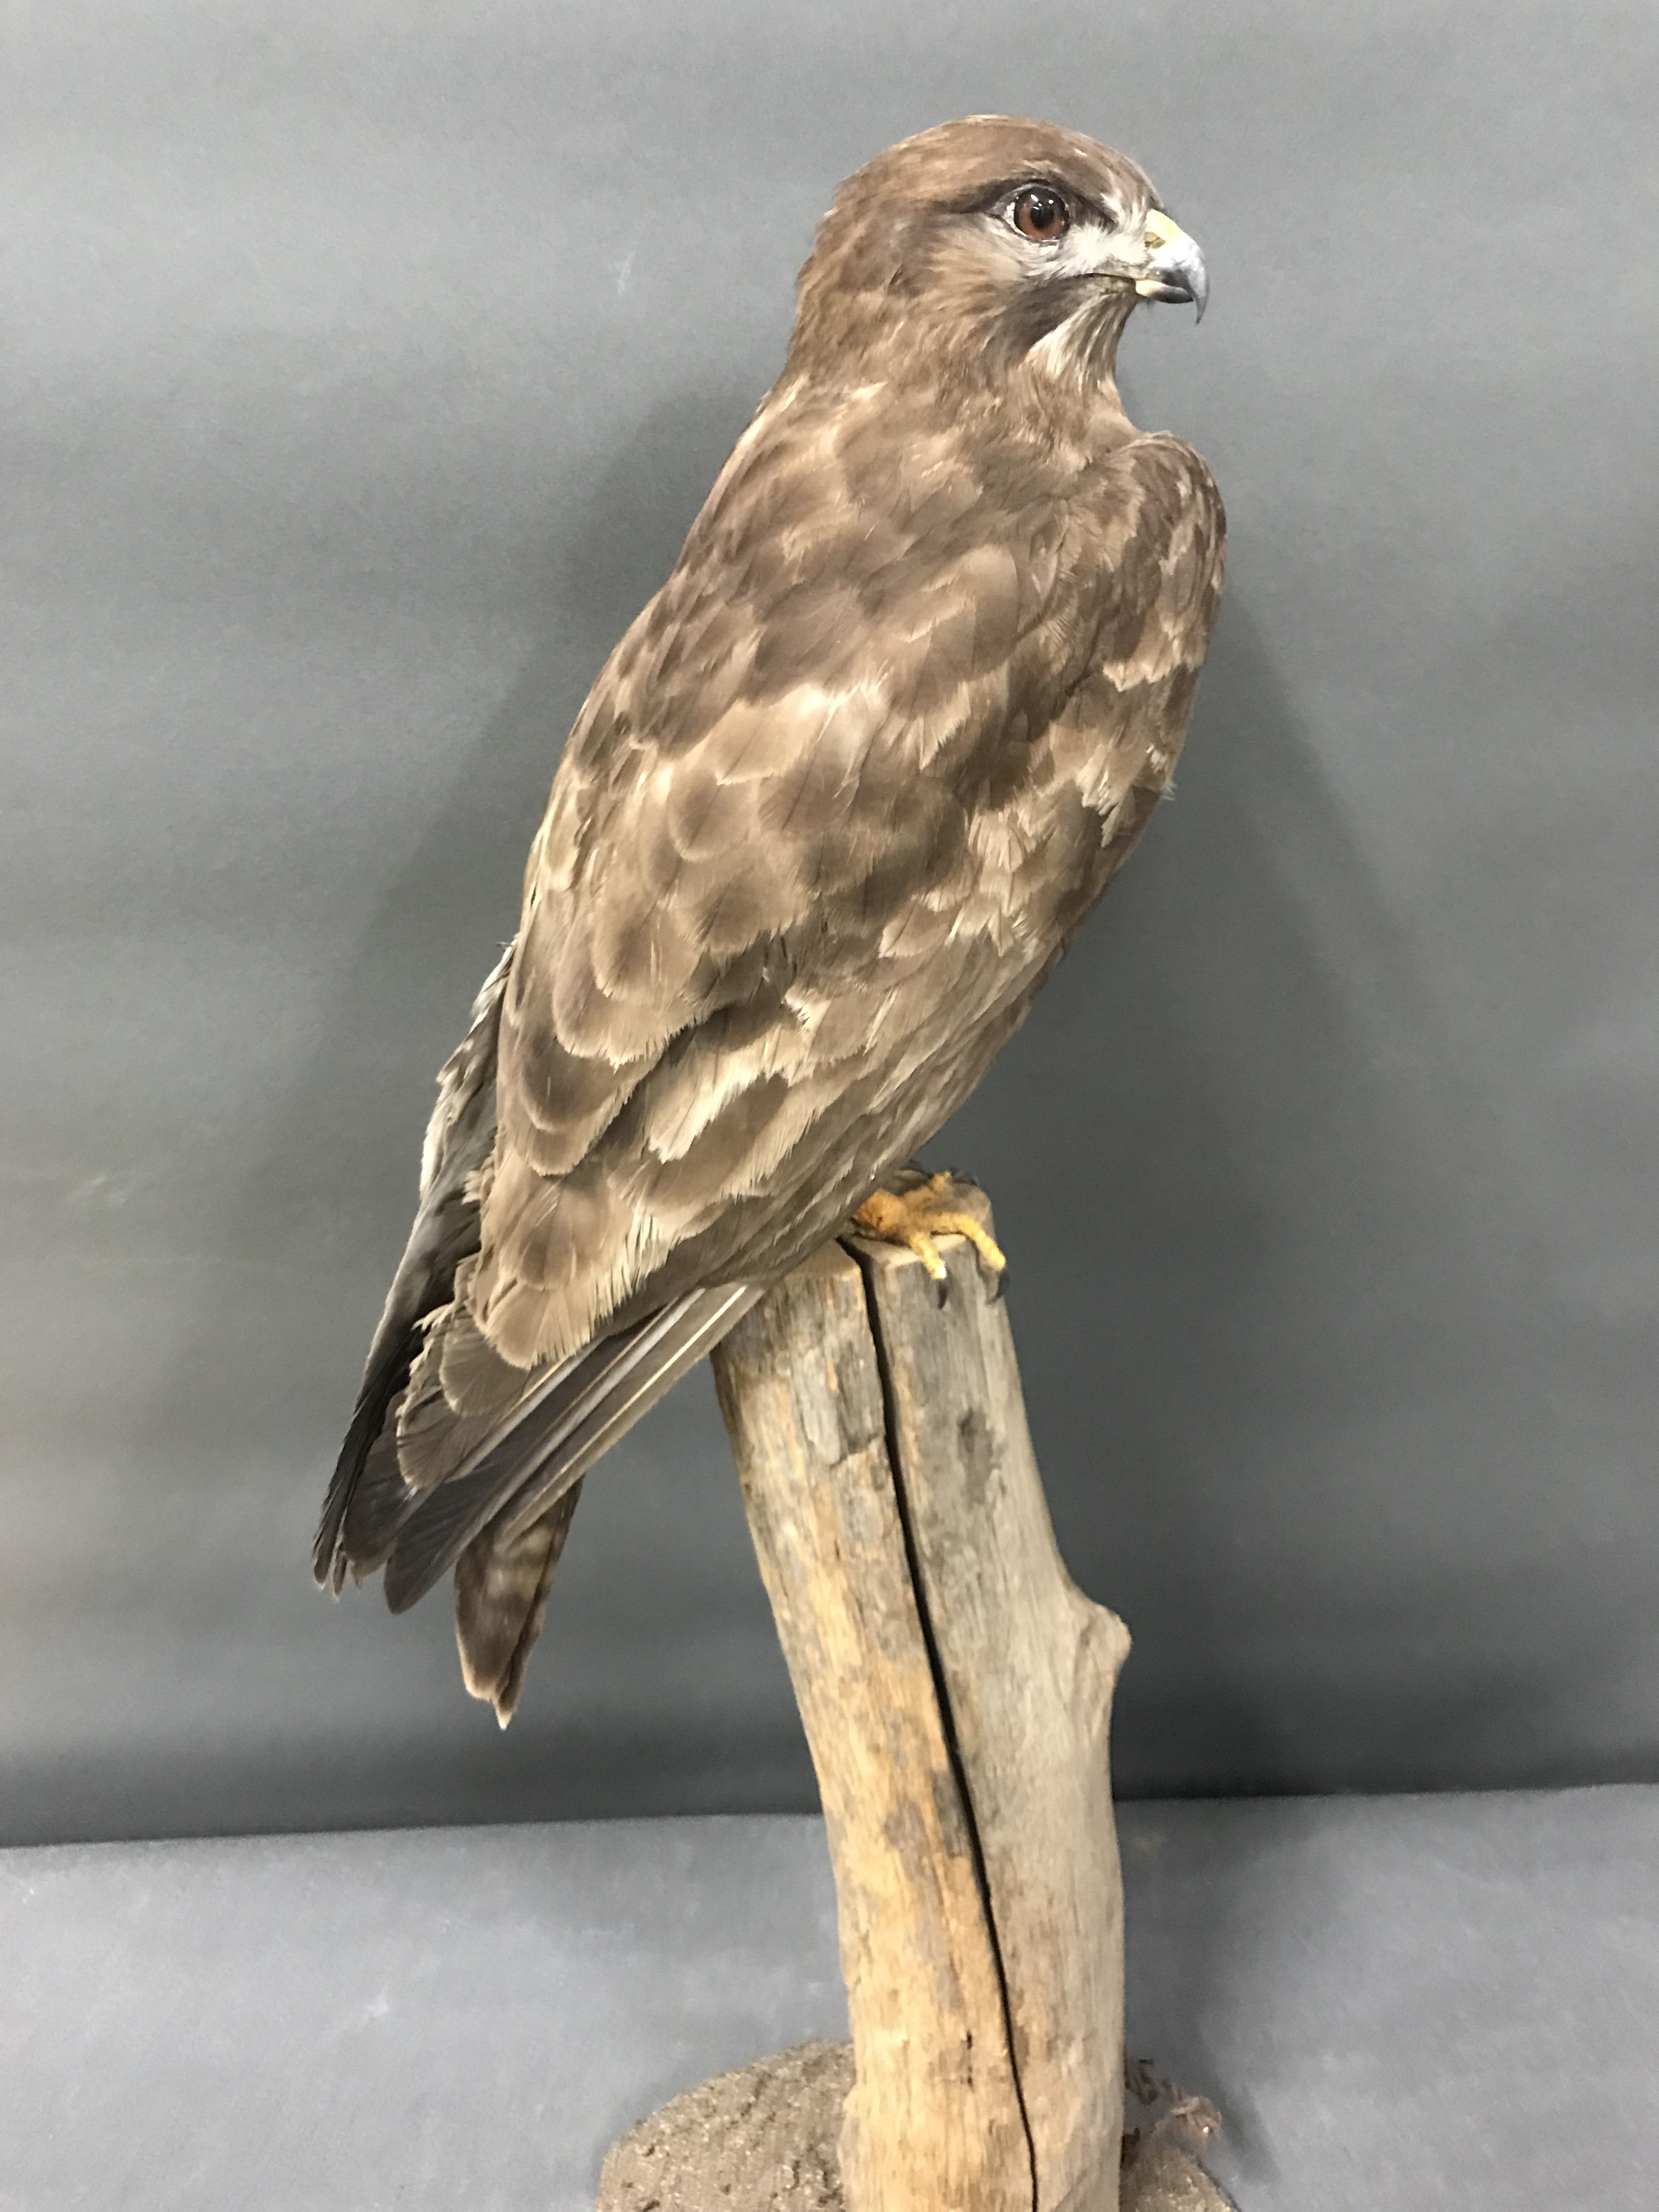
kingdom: Animalia
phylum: Chordata
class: Aves
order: Accipitriformes
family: Accipitridae
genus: Buteo
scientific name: Buteo buteo
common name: Common buzzard
